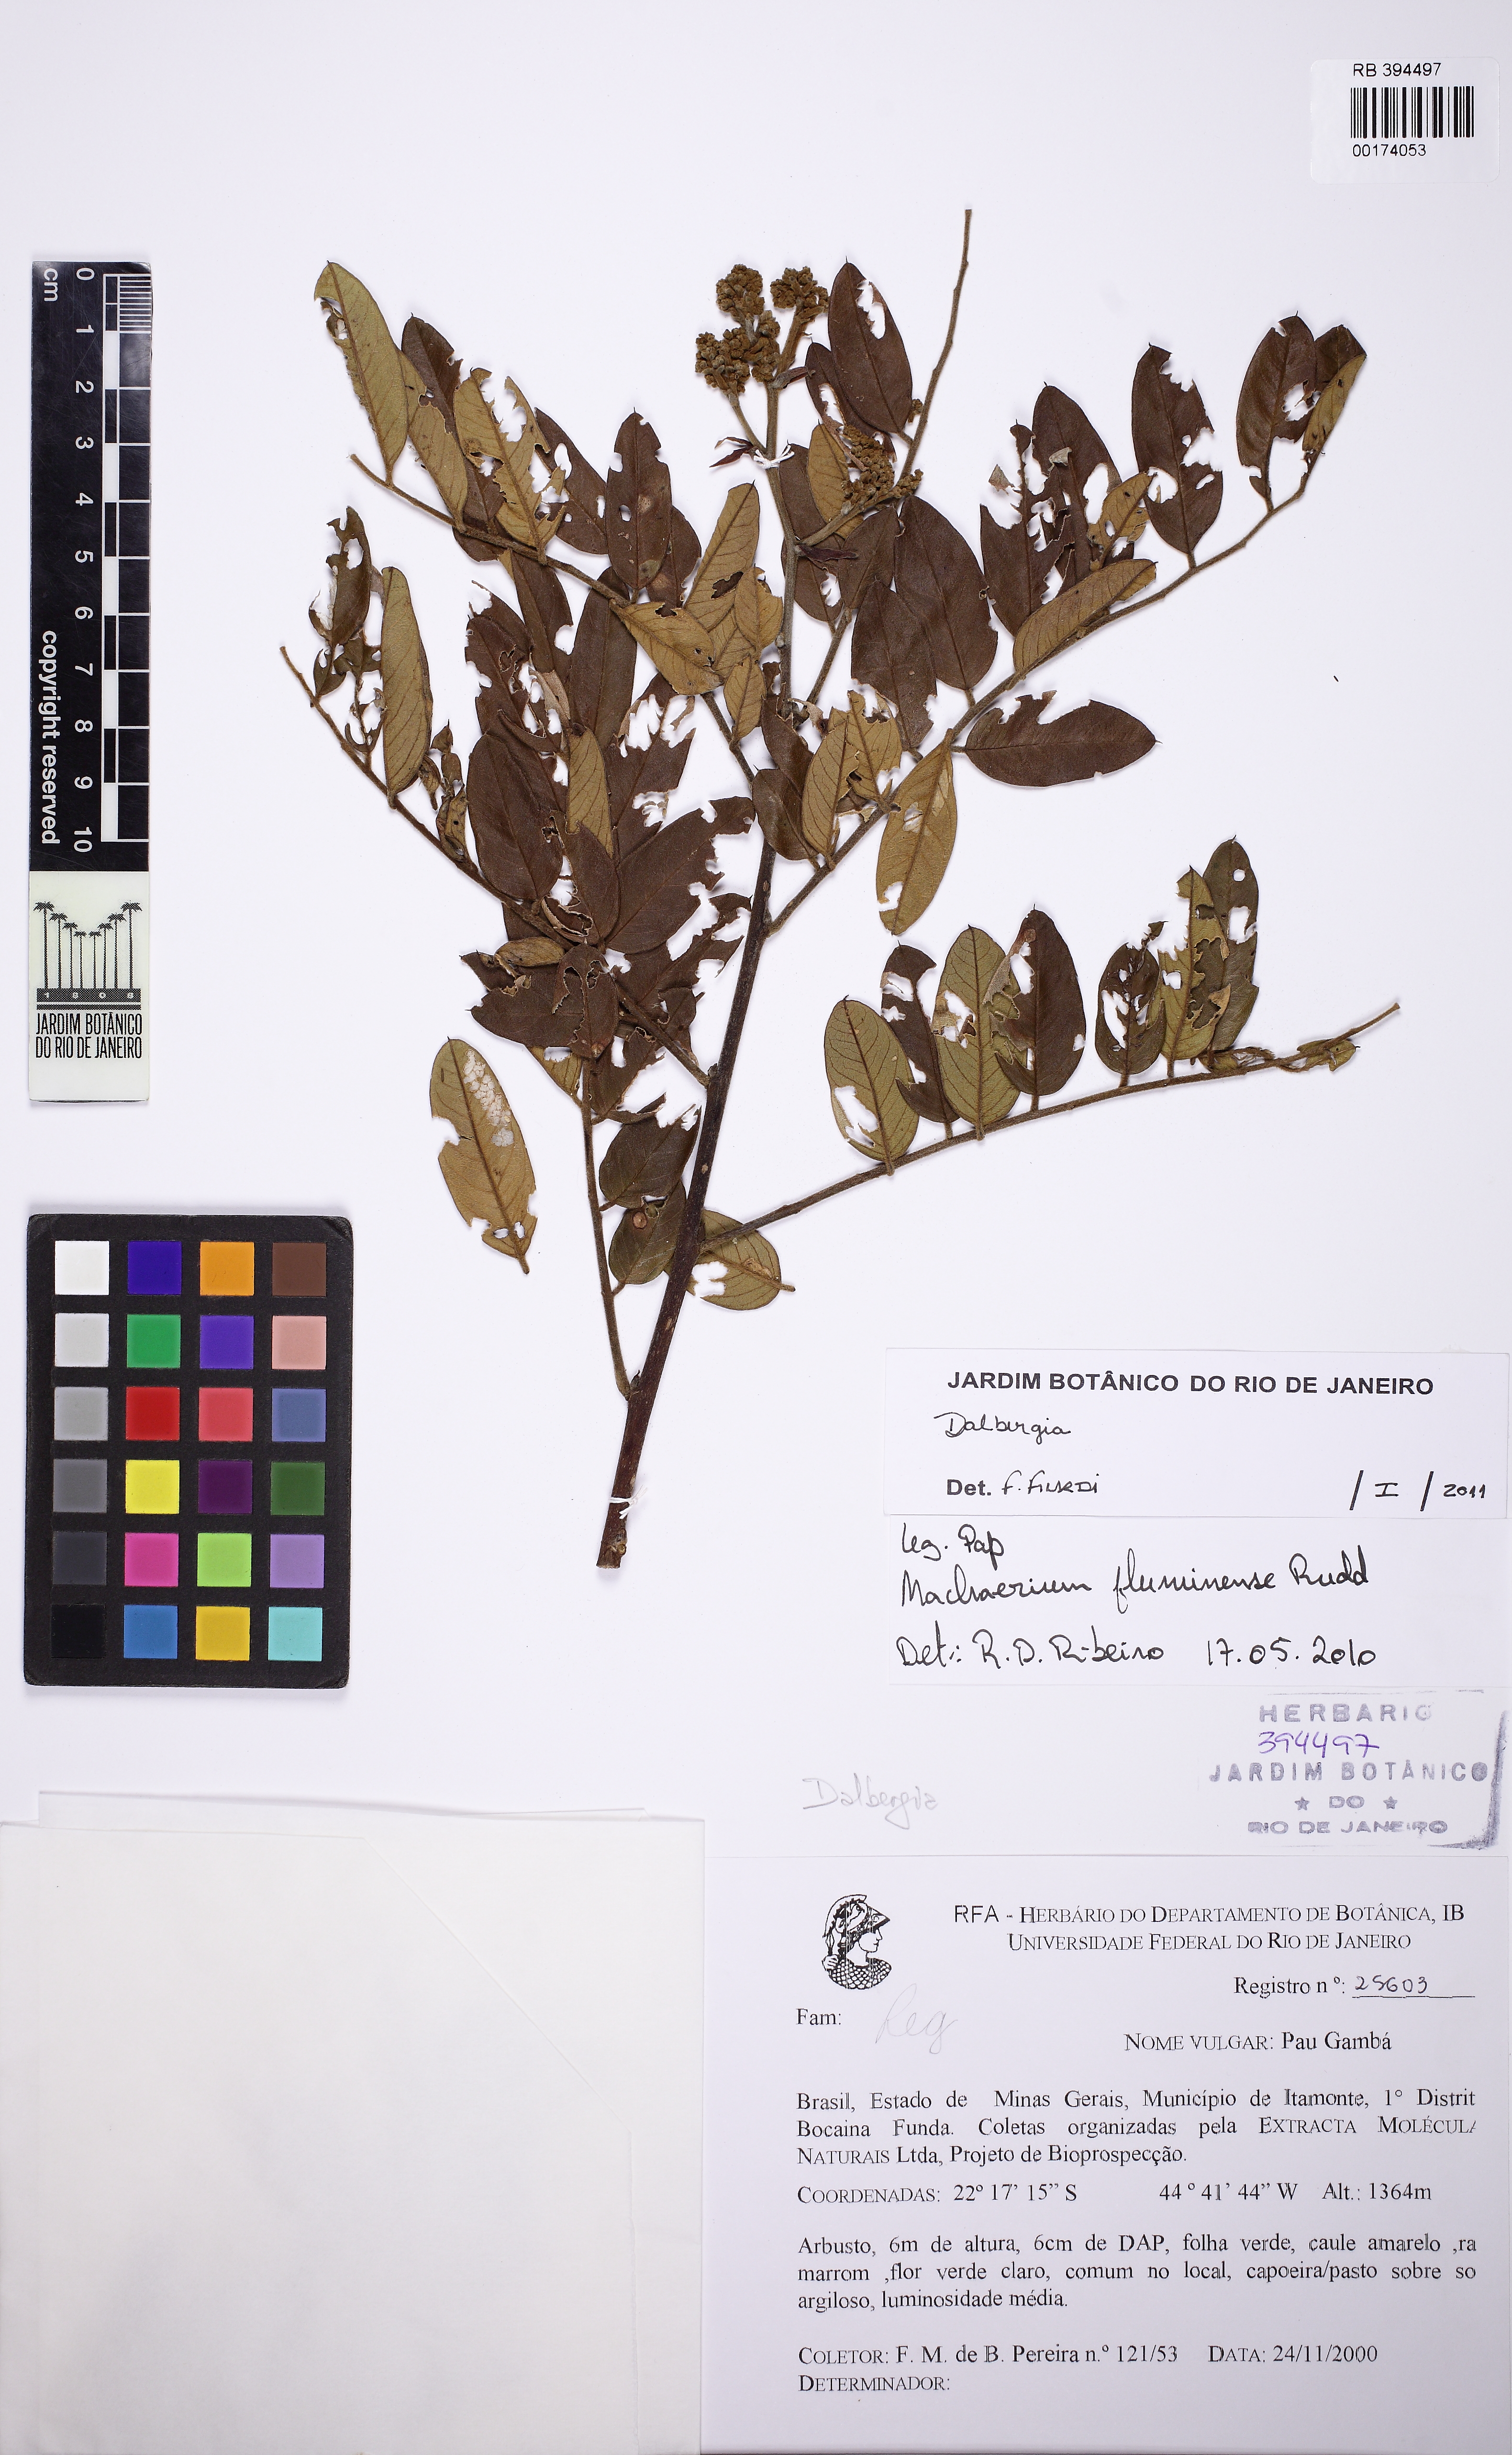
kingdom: Plantae
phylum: Tracheophyta
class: Magnoliopsida
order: Fabales
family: Fabaceae
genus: Dalbergia
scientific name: Dalbergia
